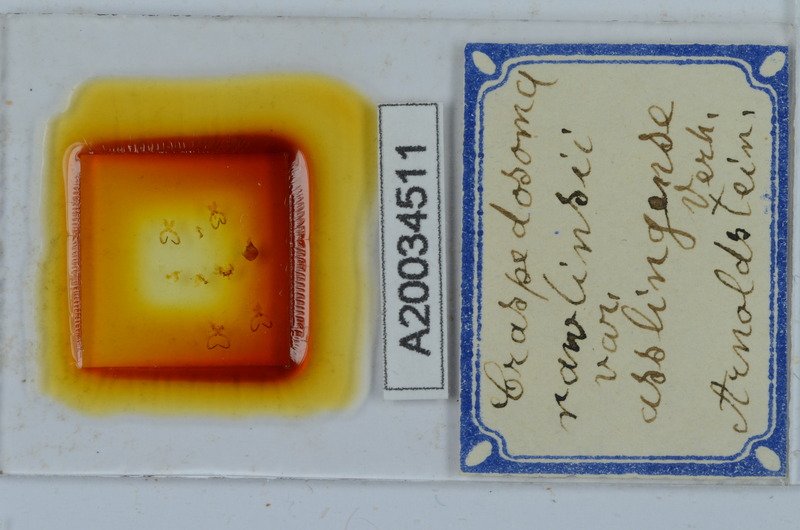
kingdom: Animalia
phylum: Arthropoda
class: Diplopoda
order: Chordeumatida
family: Craspedosomatidae
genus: Craspedosoma
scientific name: Craspedosoma slavum
